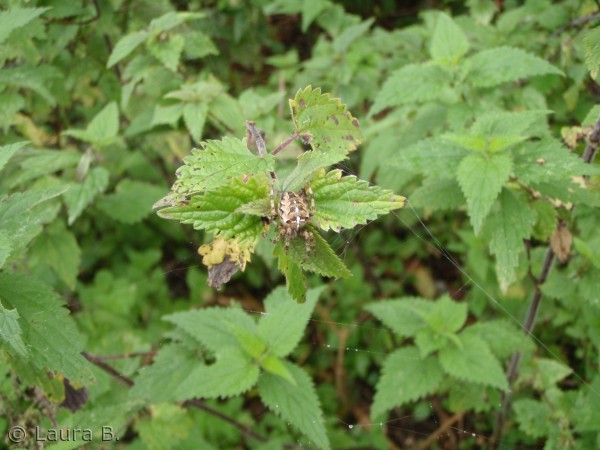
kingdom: Animalia
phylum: Arthropoda
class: Arachnida
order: Araneae
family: Araneidae
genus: Araneus
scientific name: Araneus diadematus
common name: Korsedderkop
